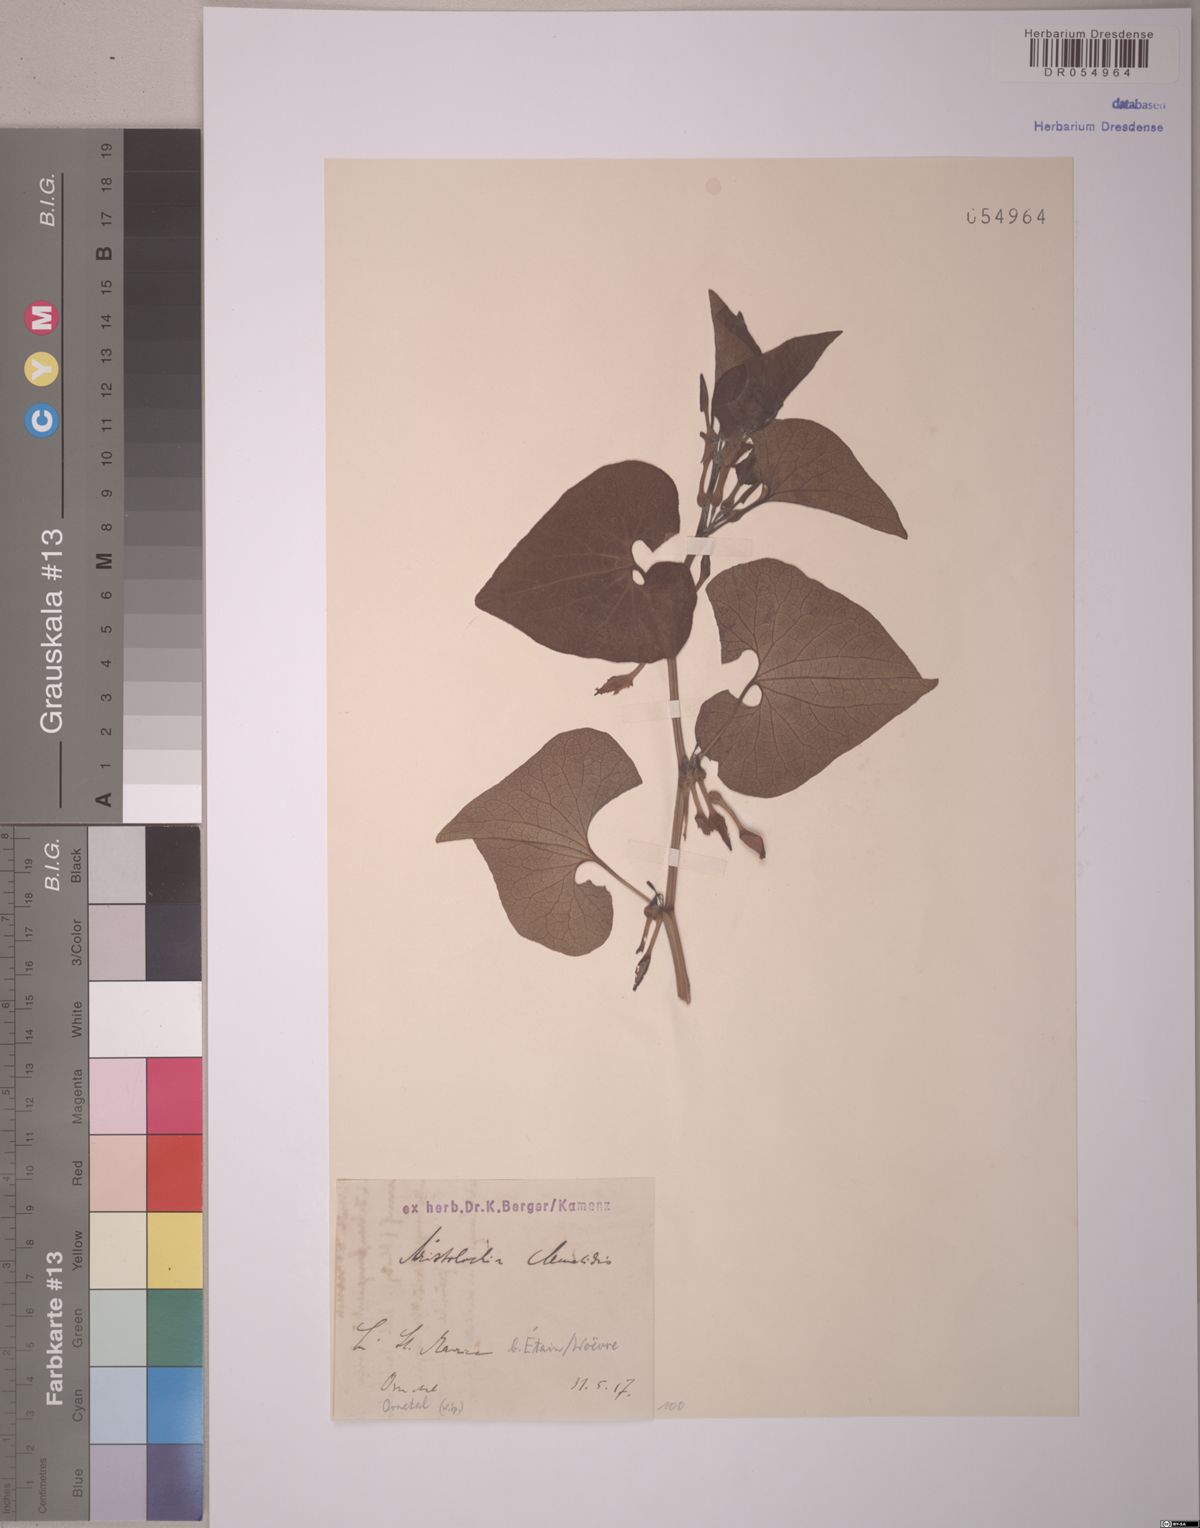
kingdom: Plantae
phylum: Tracheophyta
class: Magnoliopsida
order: Piperales
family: Aristolochiaceae
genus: Aristolochia
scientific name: Aristolochia clematitis
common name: Birthwort
